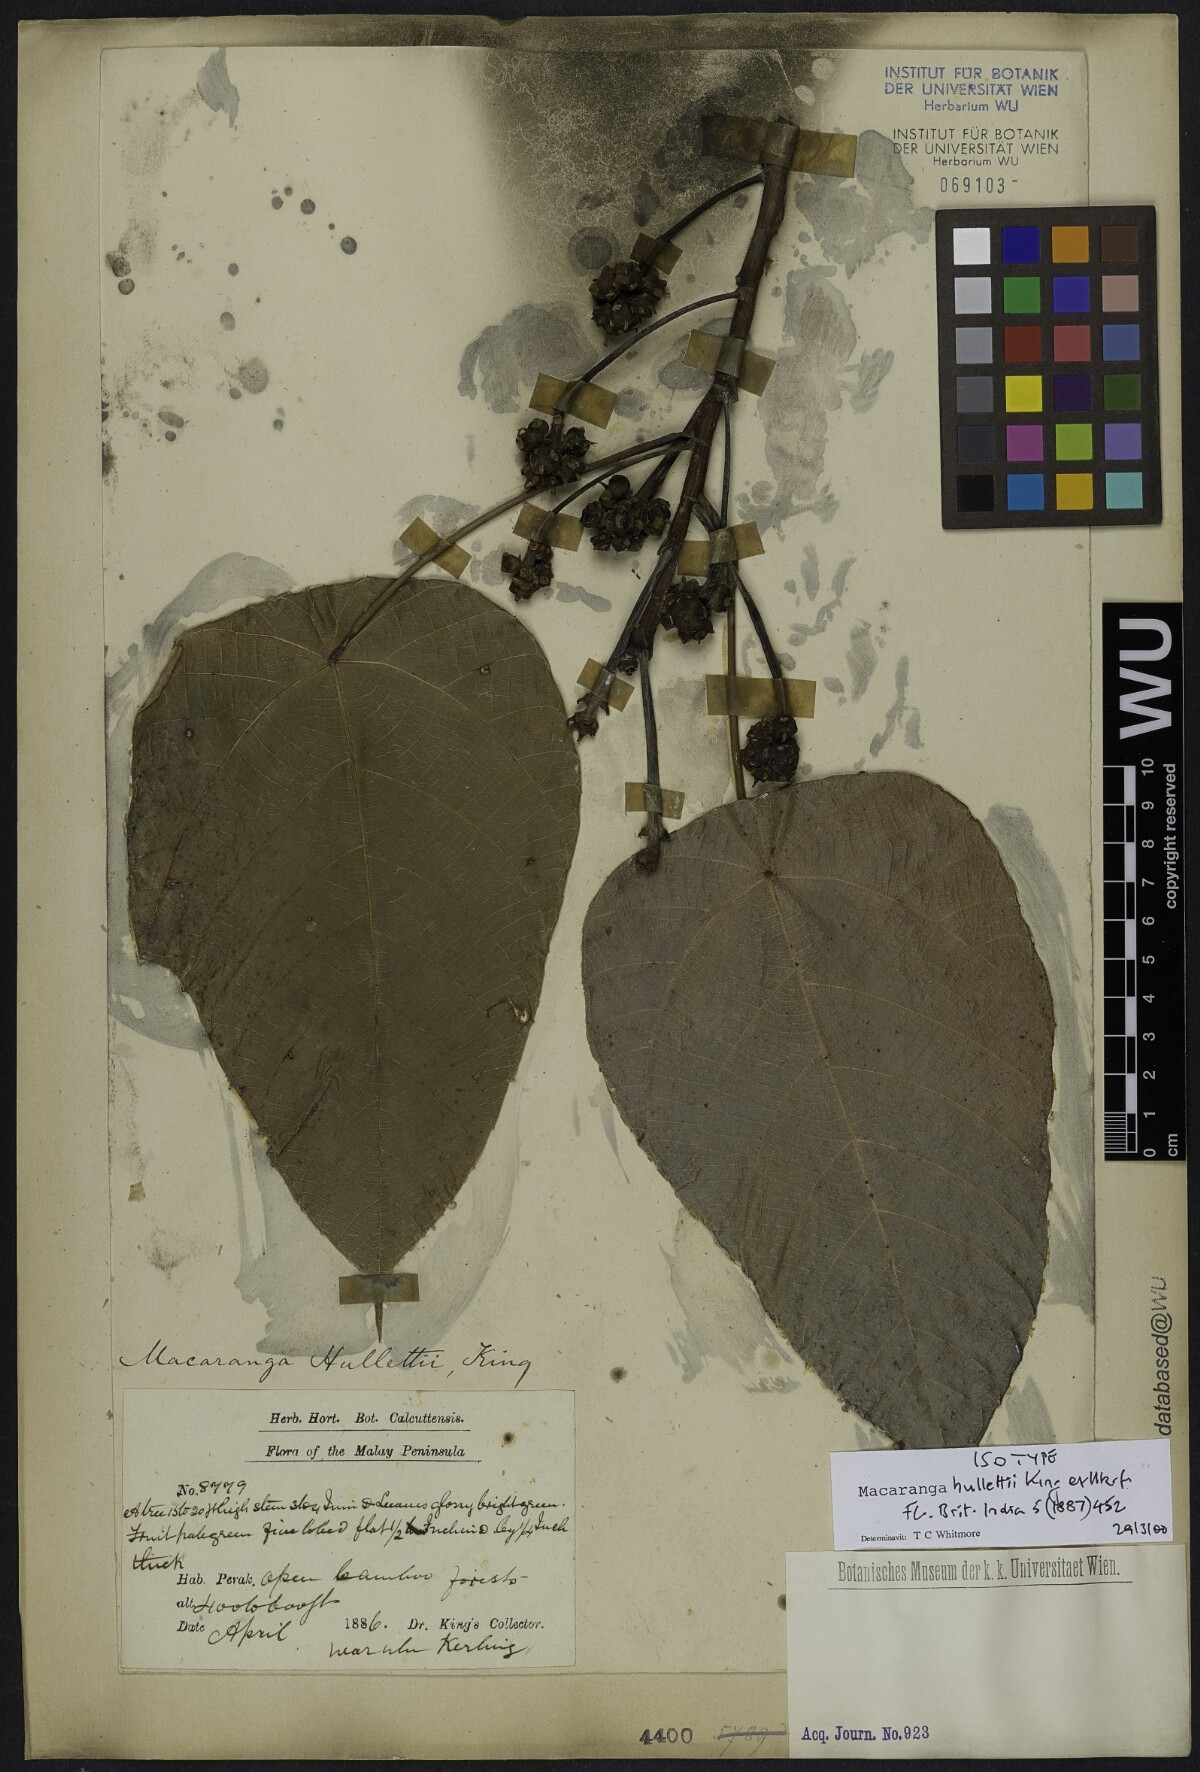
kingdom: Plantae
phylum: Tracheophyta
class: Magnoliopsida
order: Malpighiales
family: Euphorbiaceae
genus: Macaranga
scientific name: Macaranga hullettii
